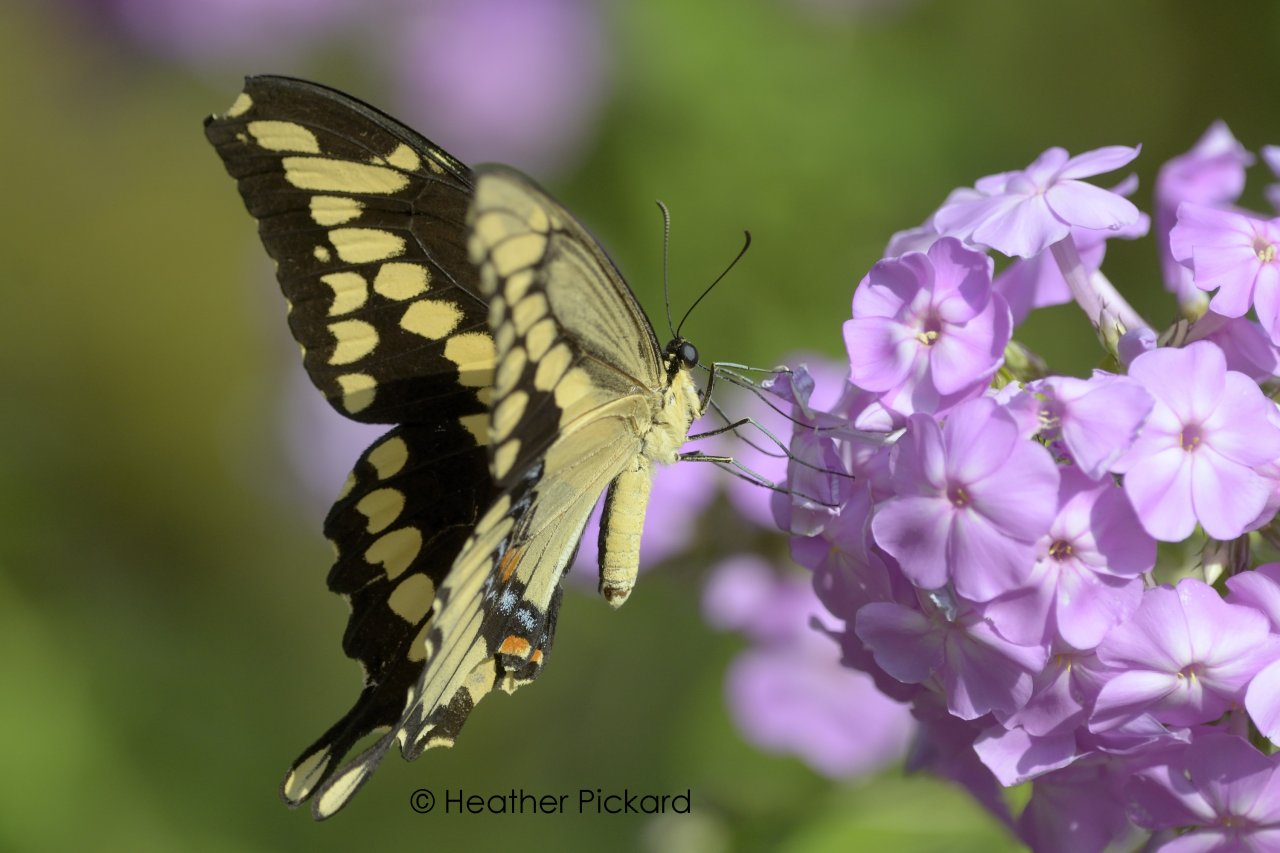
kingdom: Animalia
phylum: Arthropoda
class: Insecta
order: Lepidoptera
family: Papilionidae
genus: Papilio
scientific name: Papilio cresphontes
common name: Eastern Giant Swallowtail
